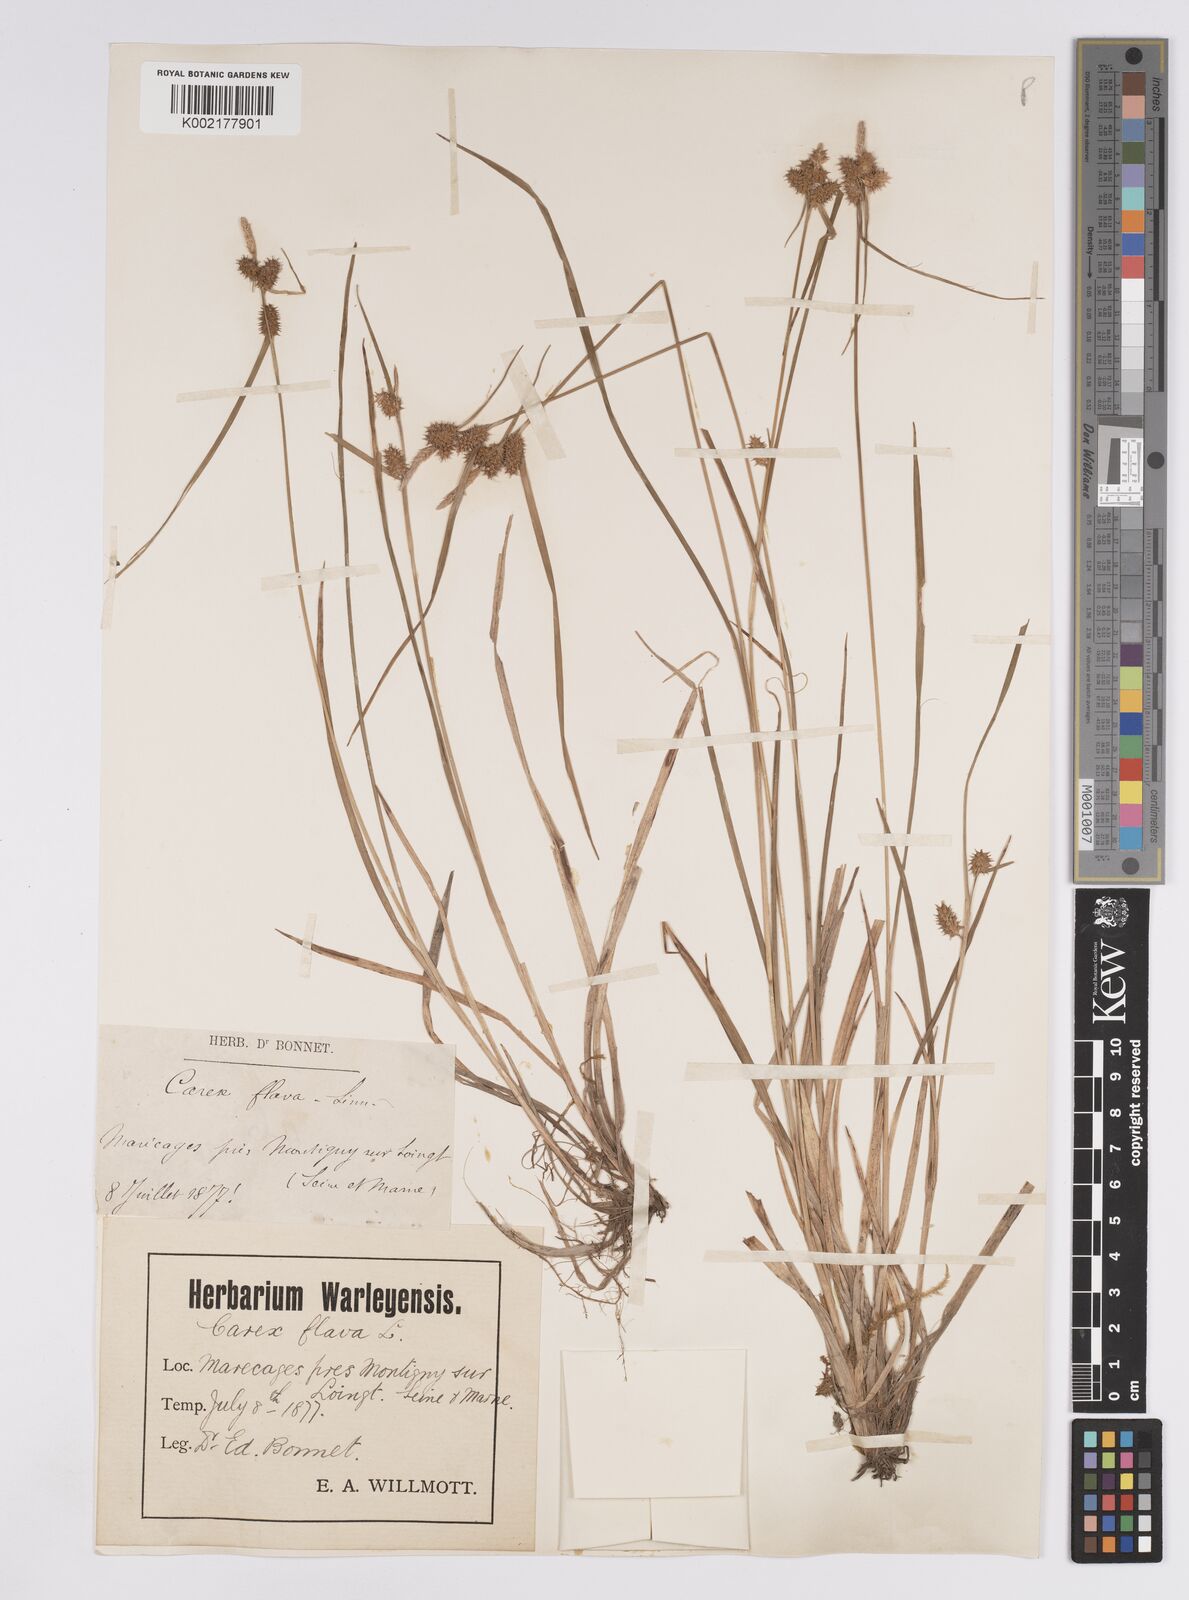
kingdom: Plantae
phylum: Tracheophyta
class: Liliopsida
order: Poales
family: Cyperaceae
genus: Carex
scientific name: Carex flava
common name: Large yellow-sedge
